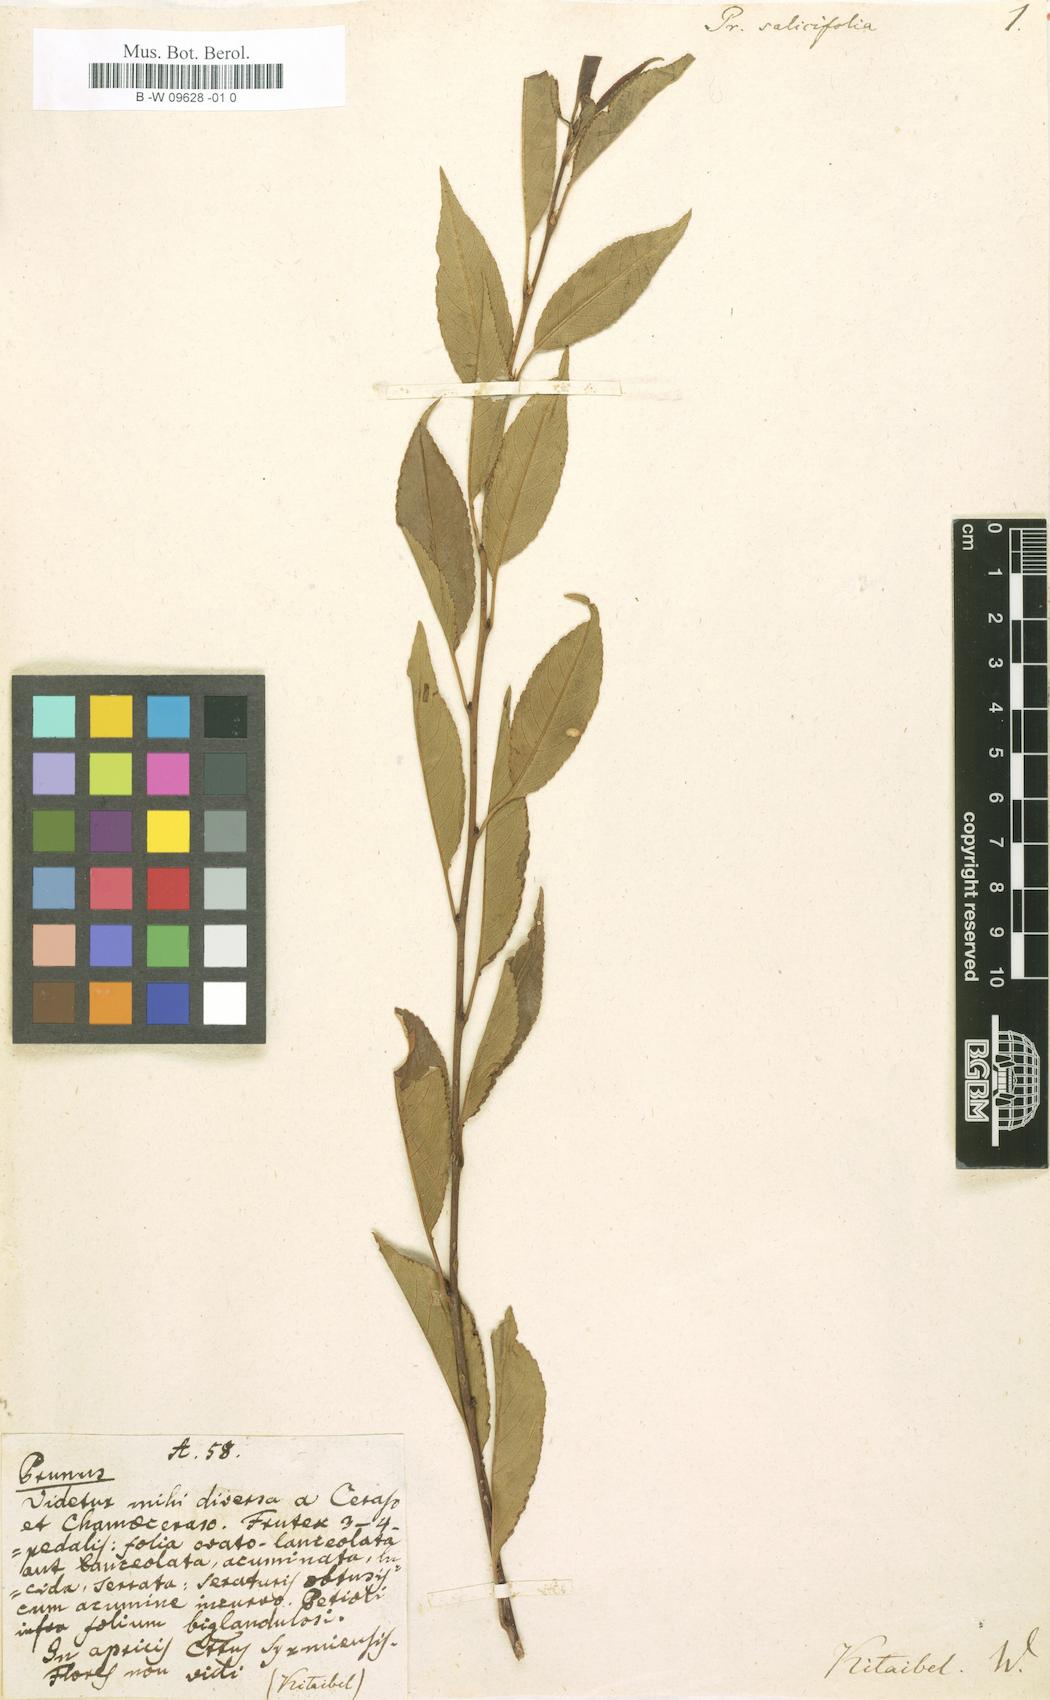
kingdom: Plantae
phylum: Tracheophyta
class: Magnoliopsida
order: Rosales
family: Rosaceae
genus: Prunus
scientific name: Prunus serotina
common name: Black cherry
